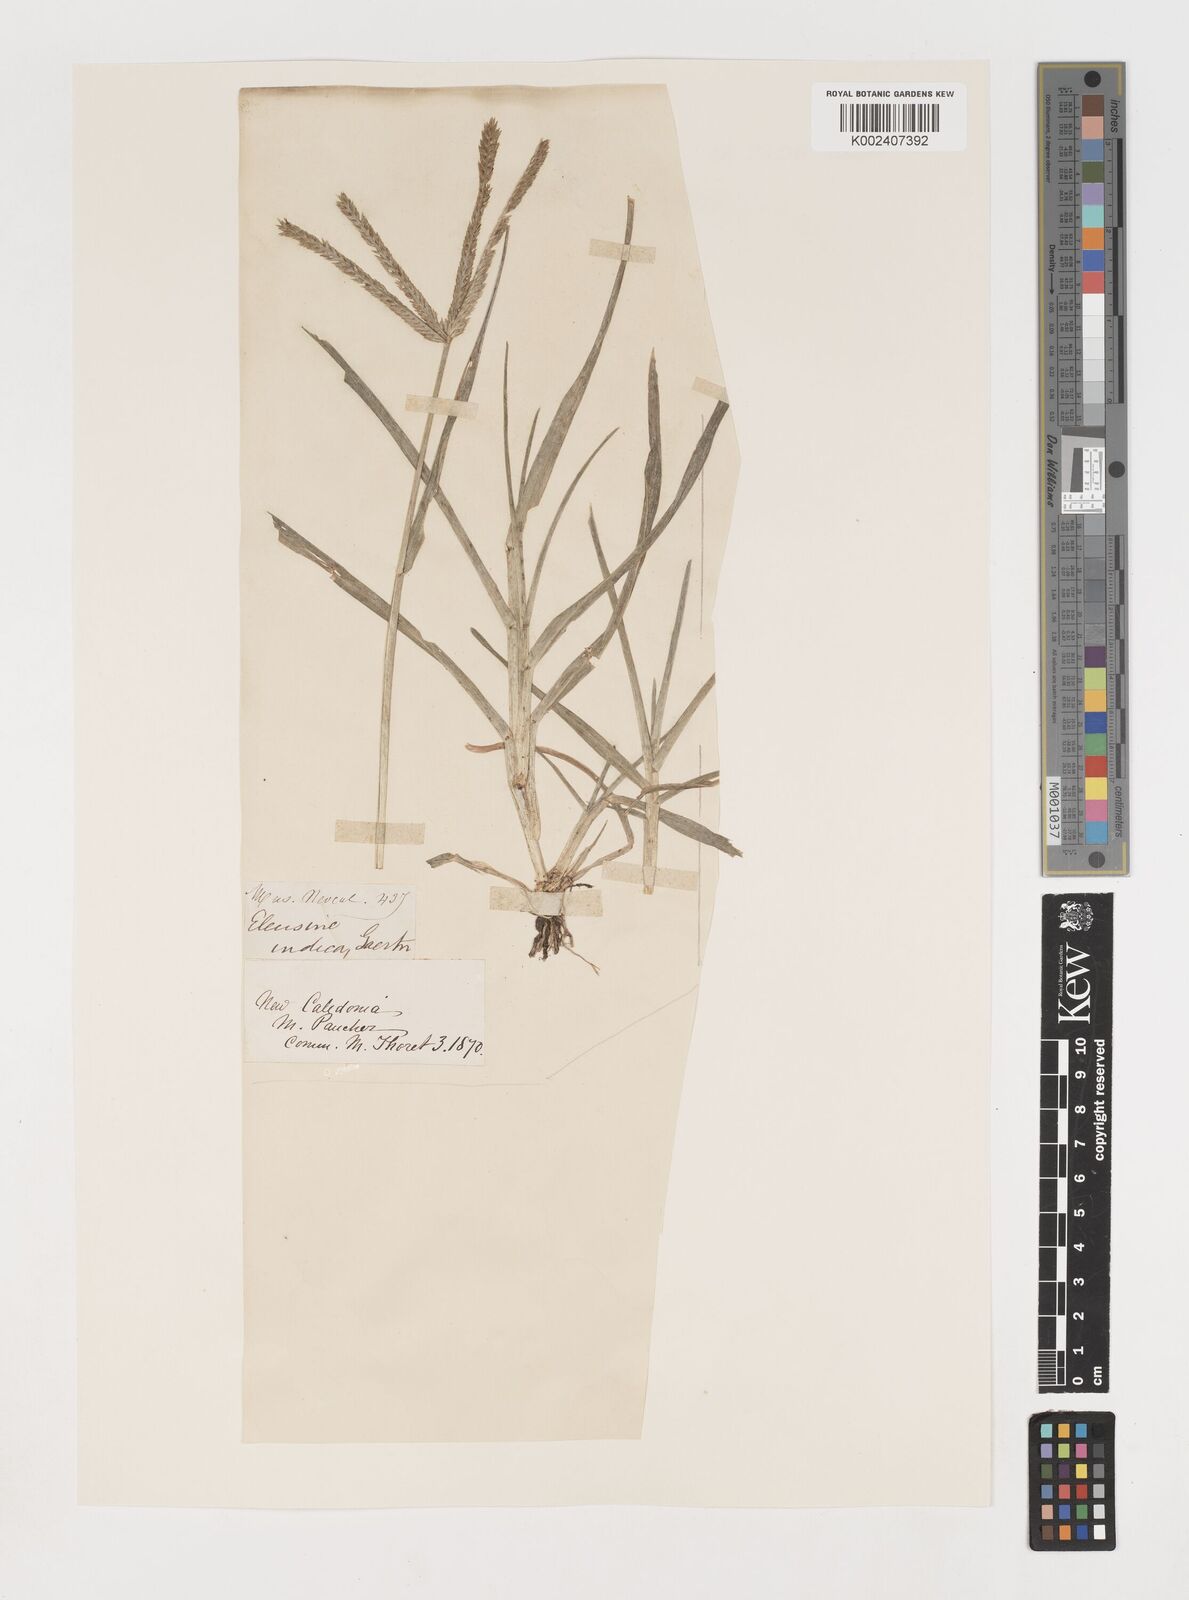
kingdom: Plantae
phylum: Tracheophyta
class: Liliopsida
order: Poales
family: Poaceae
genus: Eleusine
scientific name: Eleusine indica
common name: Yard-grass
